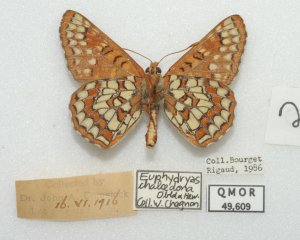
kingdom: Animalia
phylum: Arthropoda
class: Insecta
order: Lepidoptera
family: Nymphalidae
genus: Occidryas
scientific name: Occidryas chalcedona
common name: Chalcedon Checkerspot
